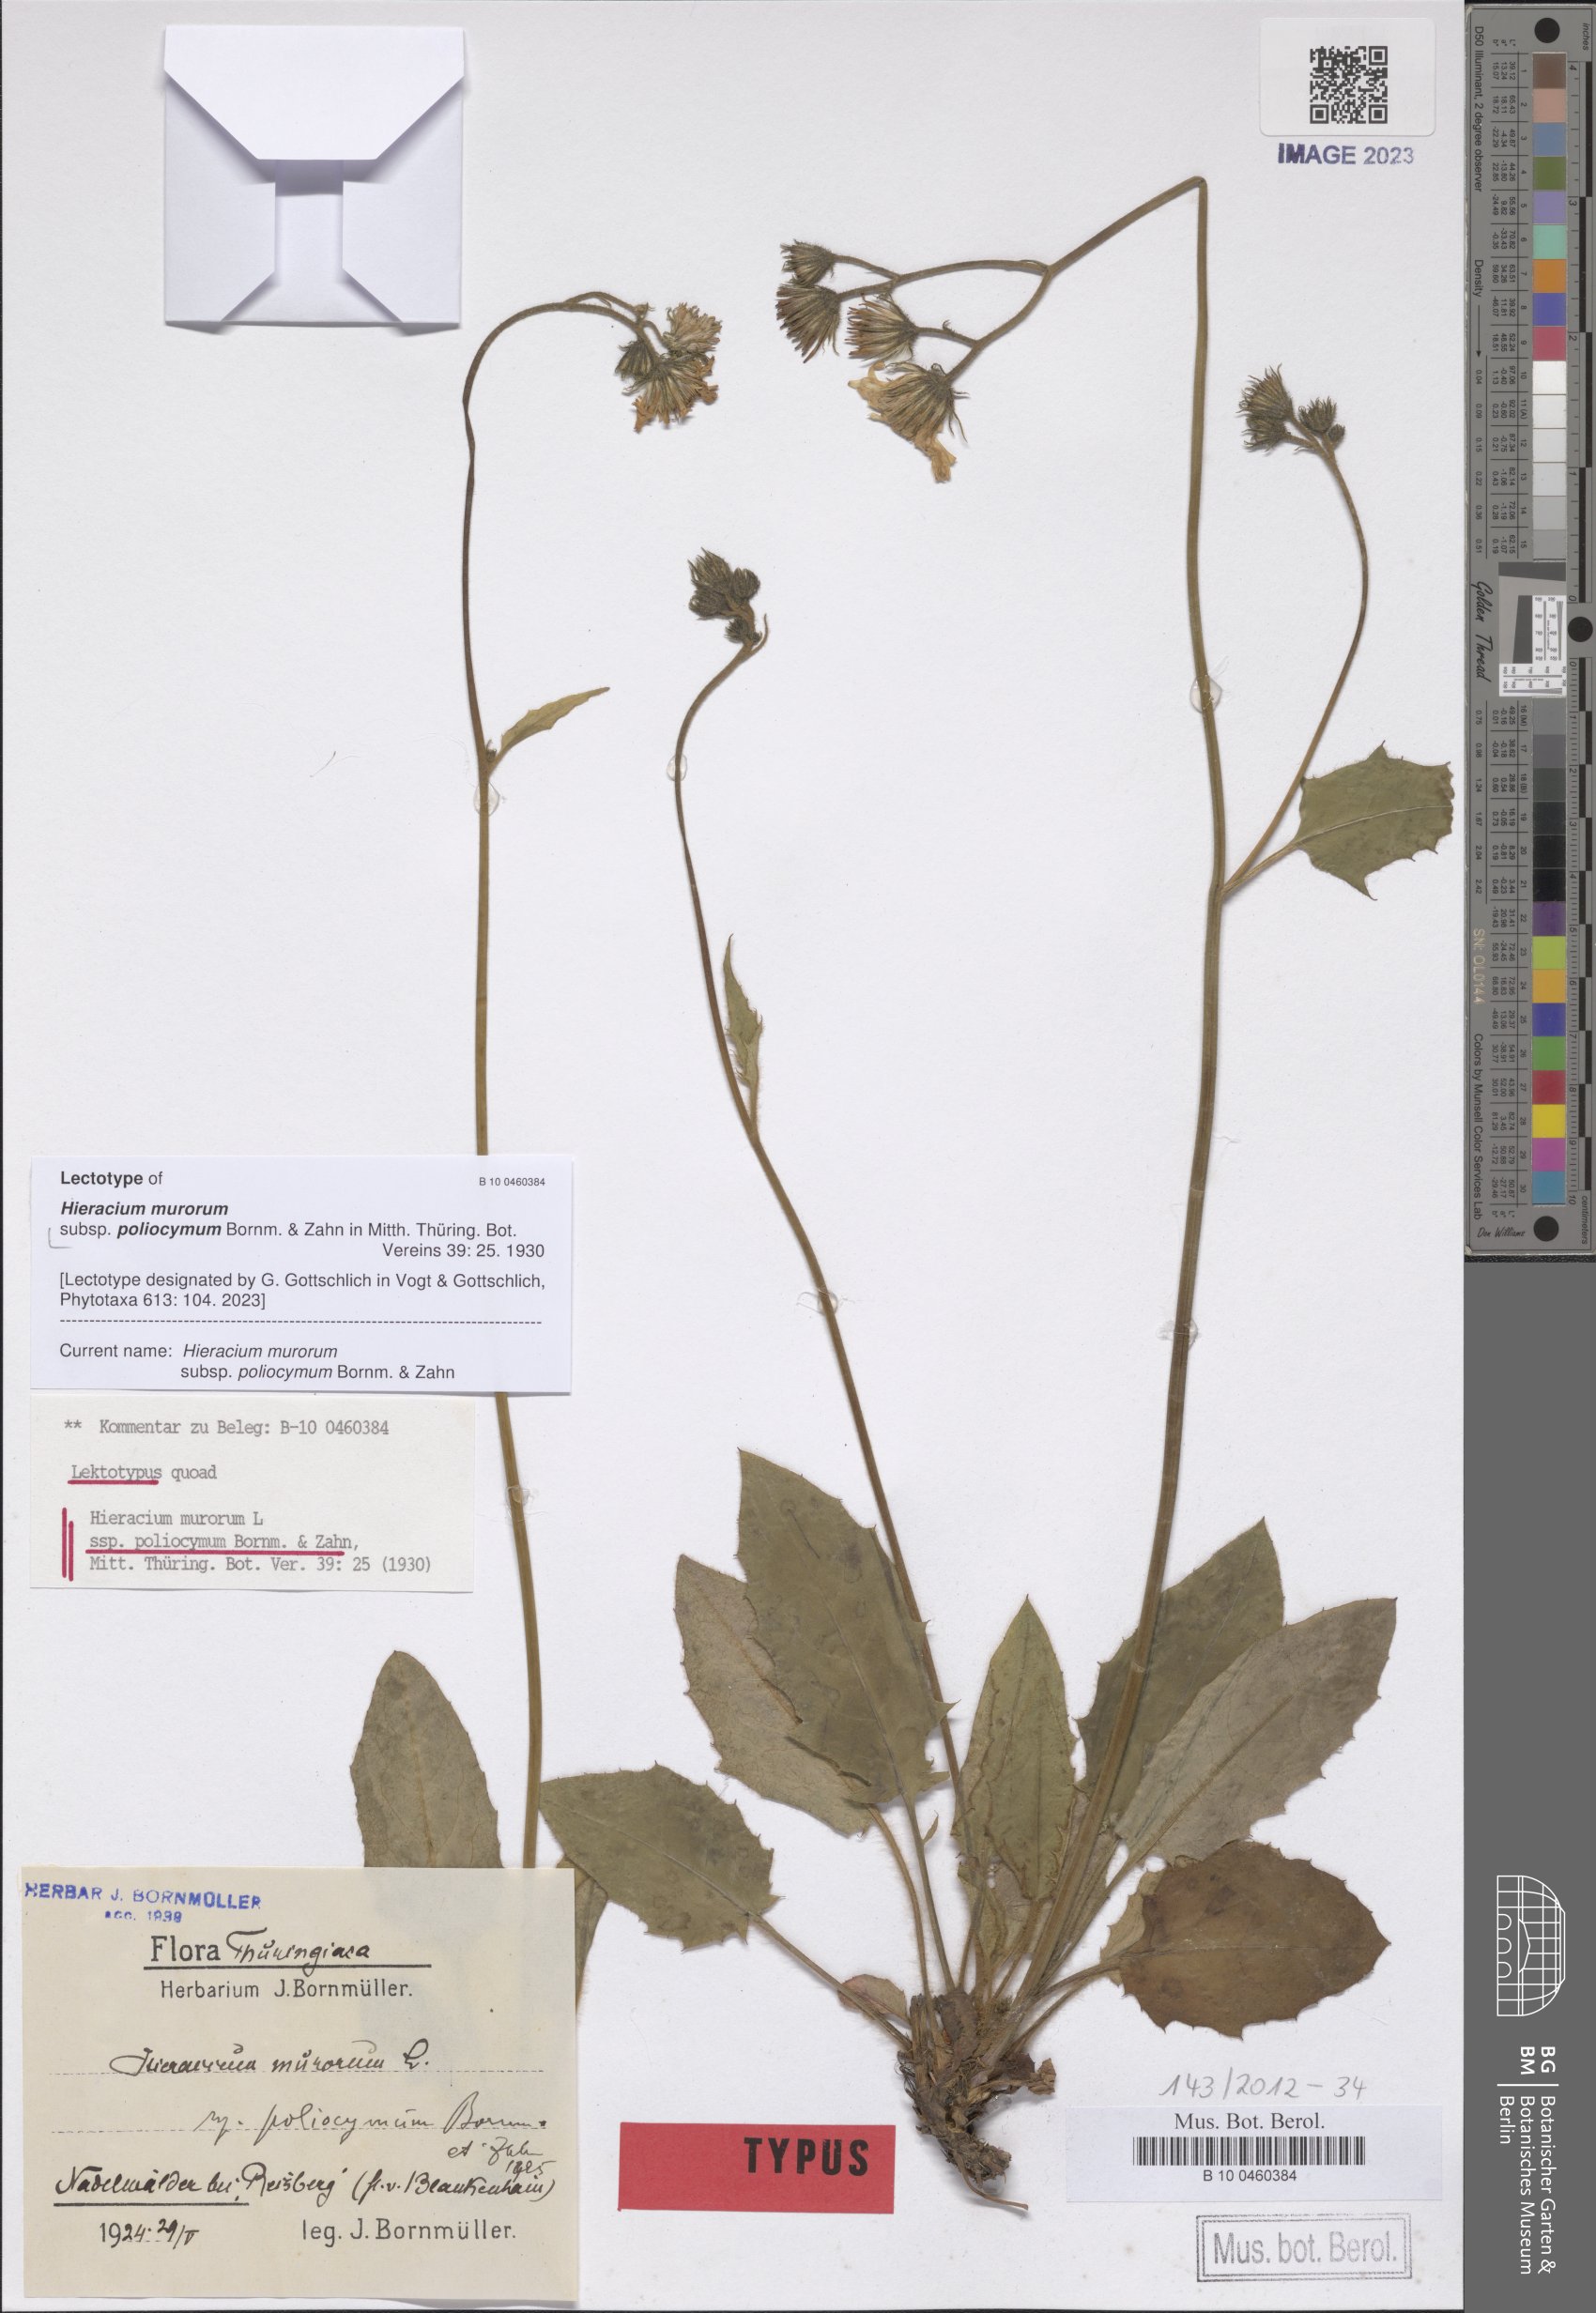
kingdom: Plantae
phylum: Tracheophyta
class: Magnoliopsida
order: Asterales
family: Asteraceae
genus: Hieracium
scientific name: Hieracium murorum
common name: Wall hawkweed
